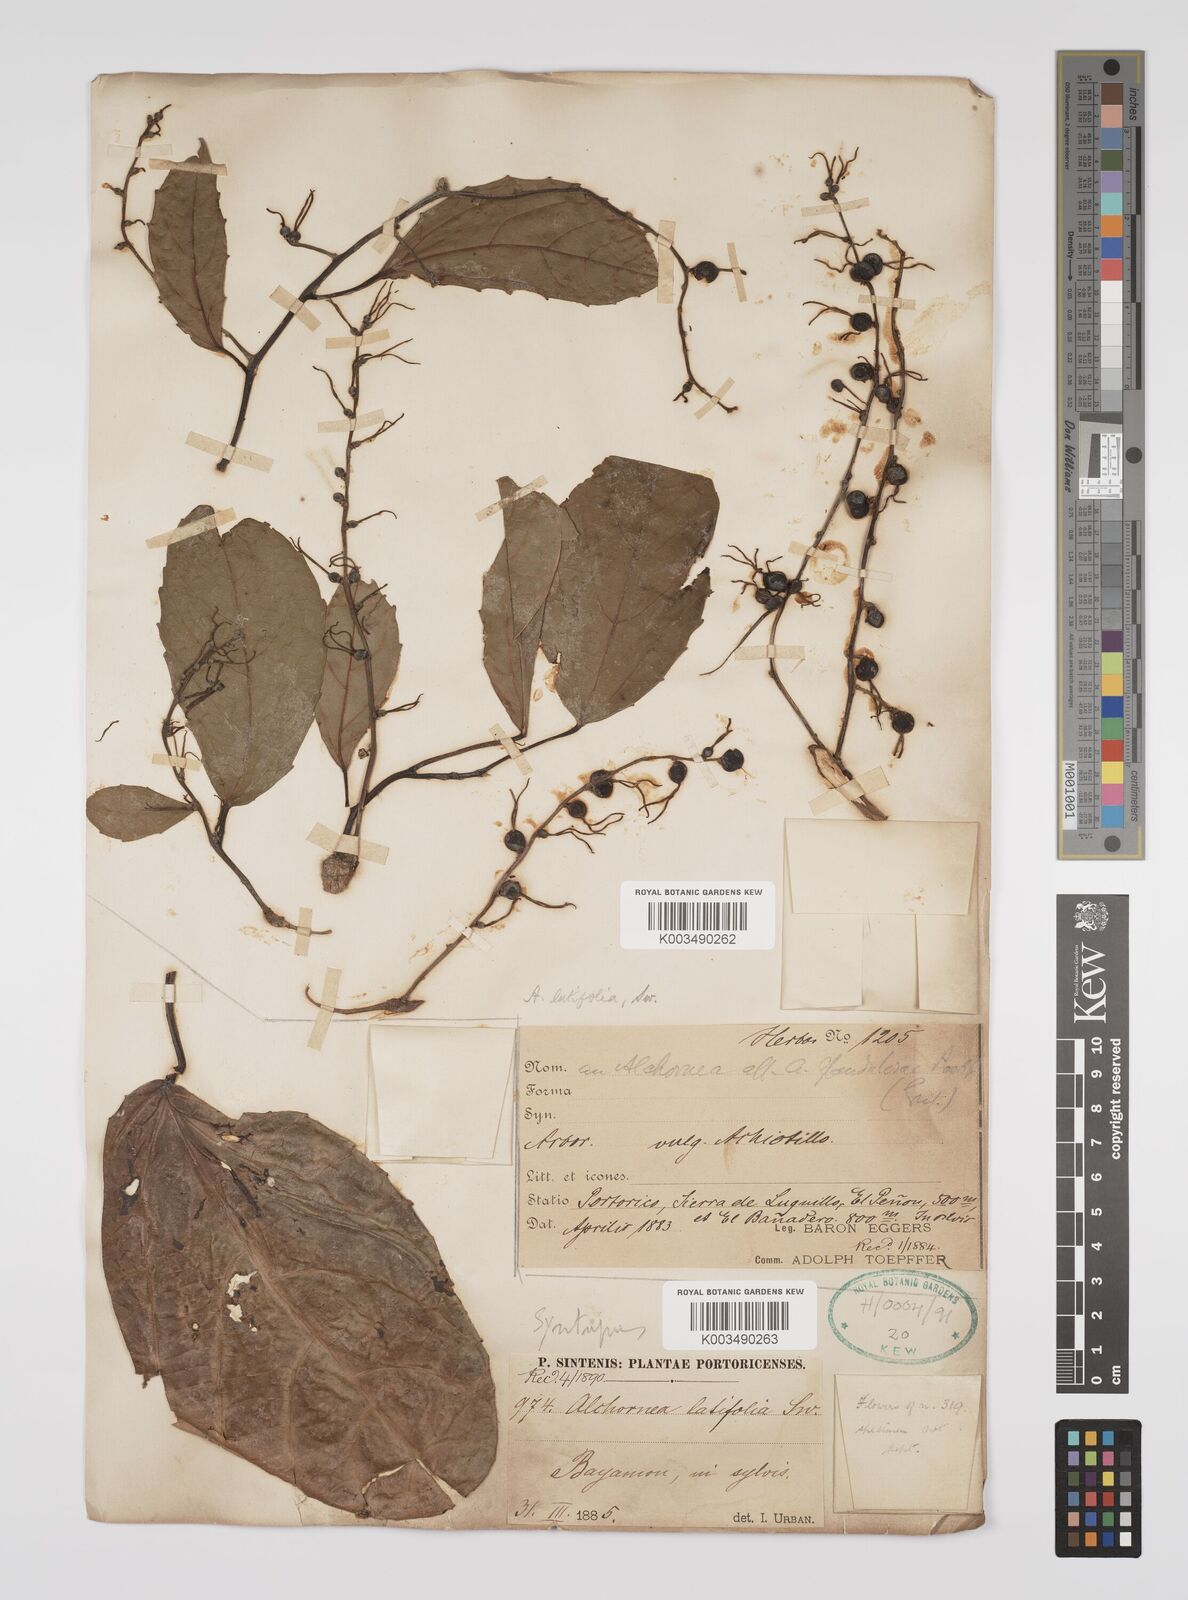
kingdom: Plantae
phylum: Tracheophyta
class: Magnoliopsida
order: Malpighiales
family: Euphorbiaceae
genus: Alchornea
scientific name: Alchornea latifolia
